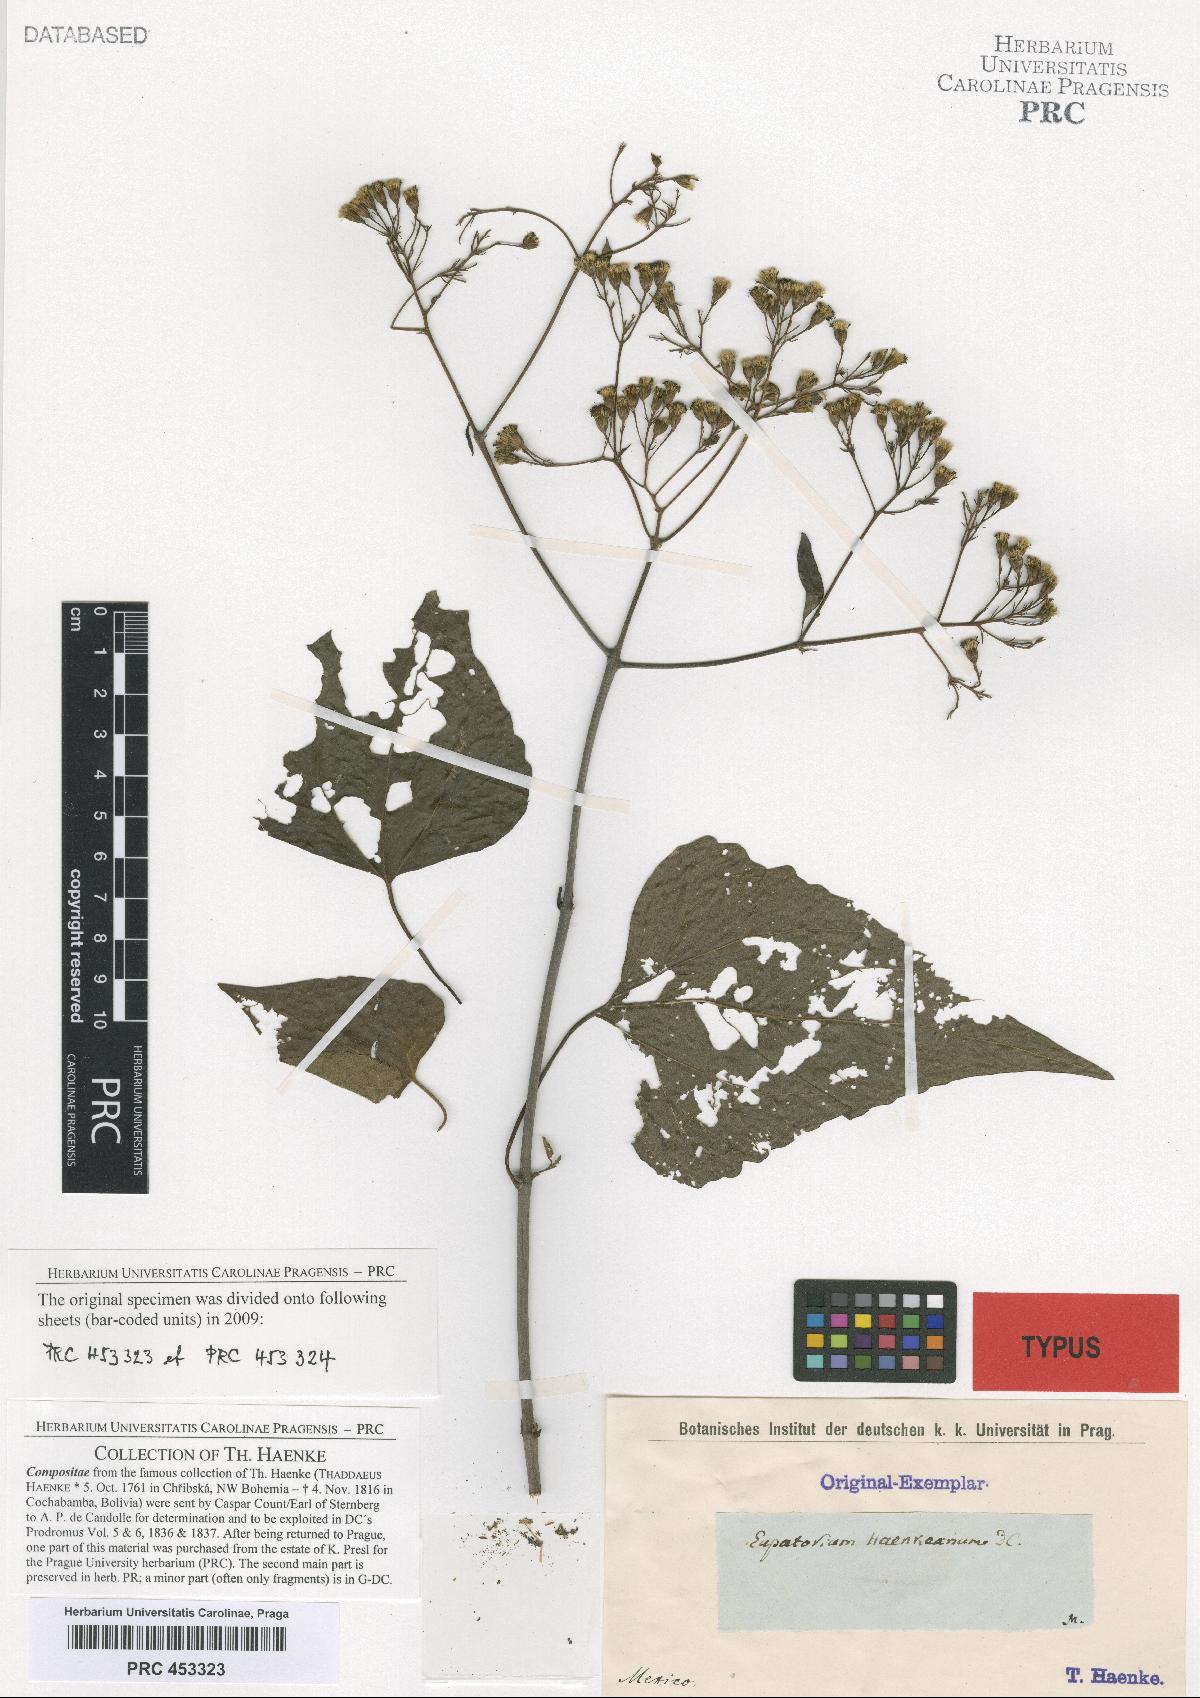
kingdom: Plantae
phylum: Tracheophyta
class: Magnoliopsida
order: Asterales
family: Asteraceae
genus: Chromolaena
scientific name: Chromolaena haenkeana
